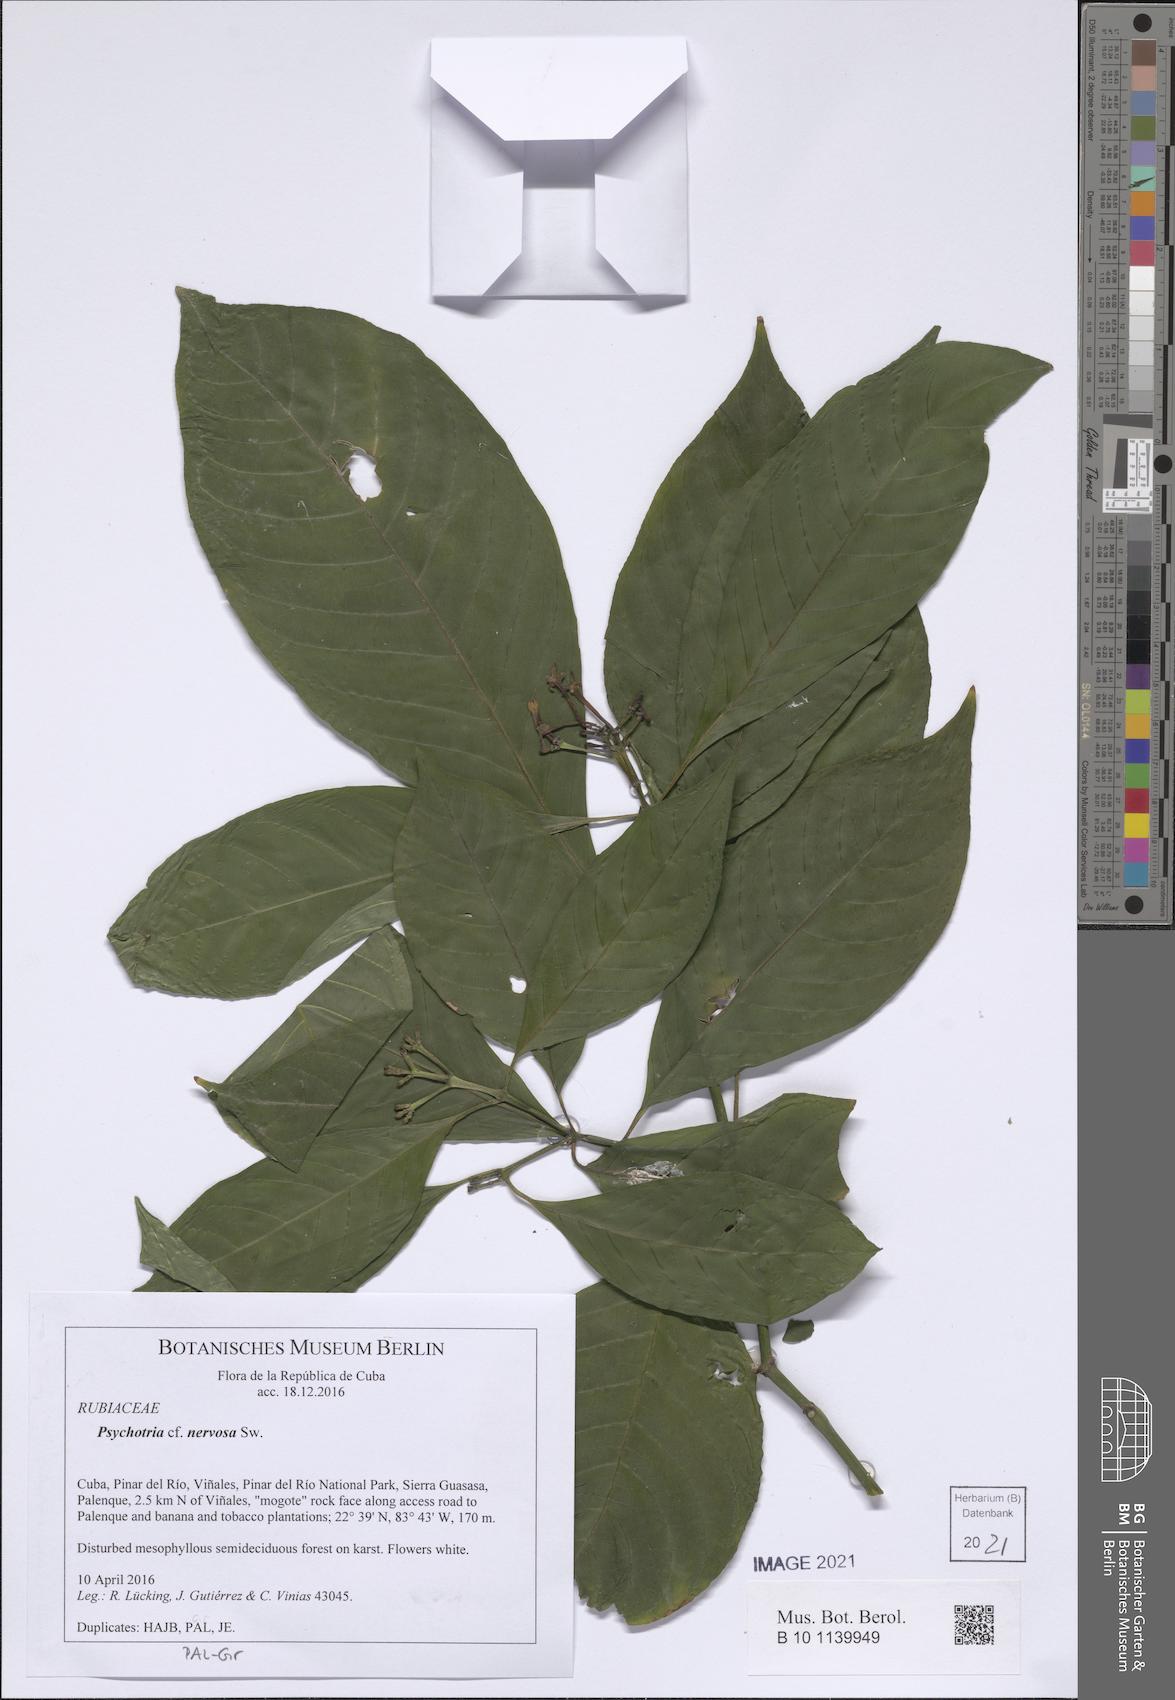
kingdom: Plantae
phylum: Tracheophyta
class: Magnoliopsida
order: Gentianales
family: Rubiaceae
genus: Psychotria
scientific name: Psychotria nervosa
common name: Bastard cankerberry
